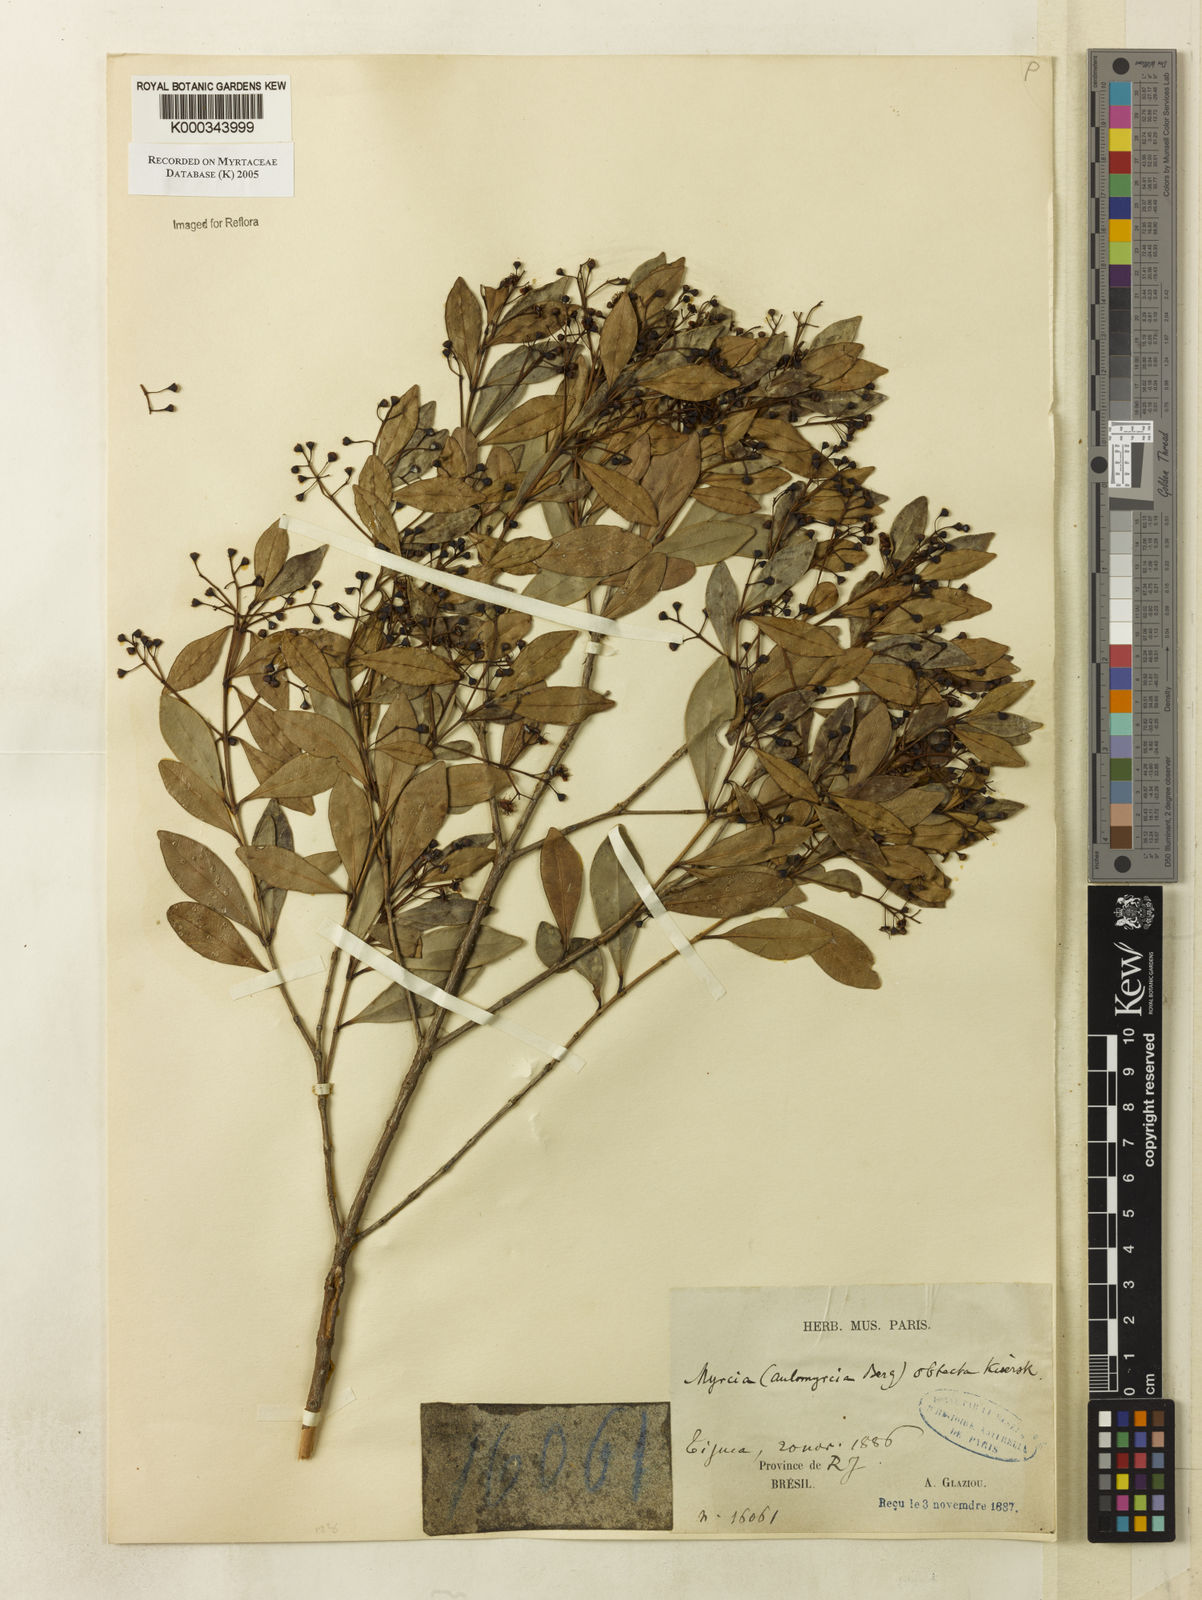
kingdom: Plantae
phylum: Tracheophyta
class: Magnoliopsida
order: Myrtales
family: Myrtaceae
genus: Myrcia
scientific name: Myrcia guianensis
